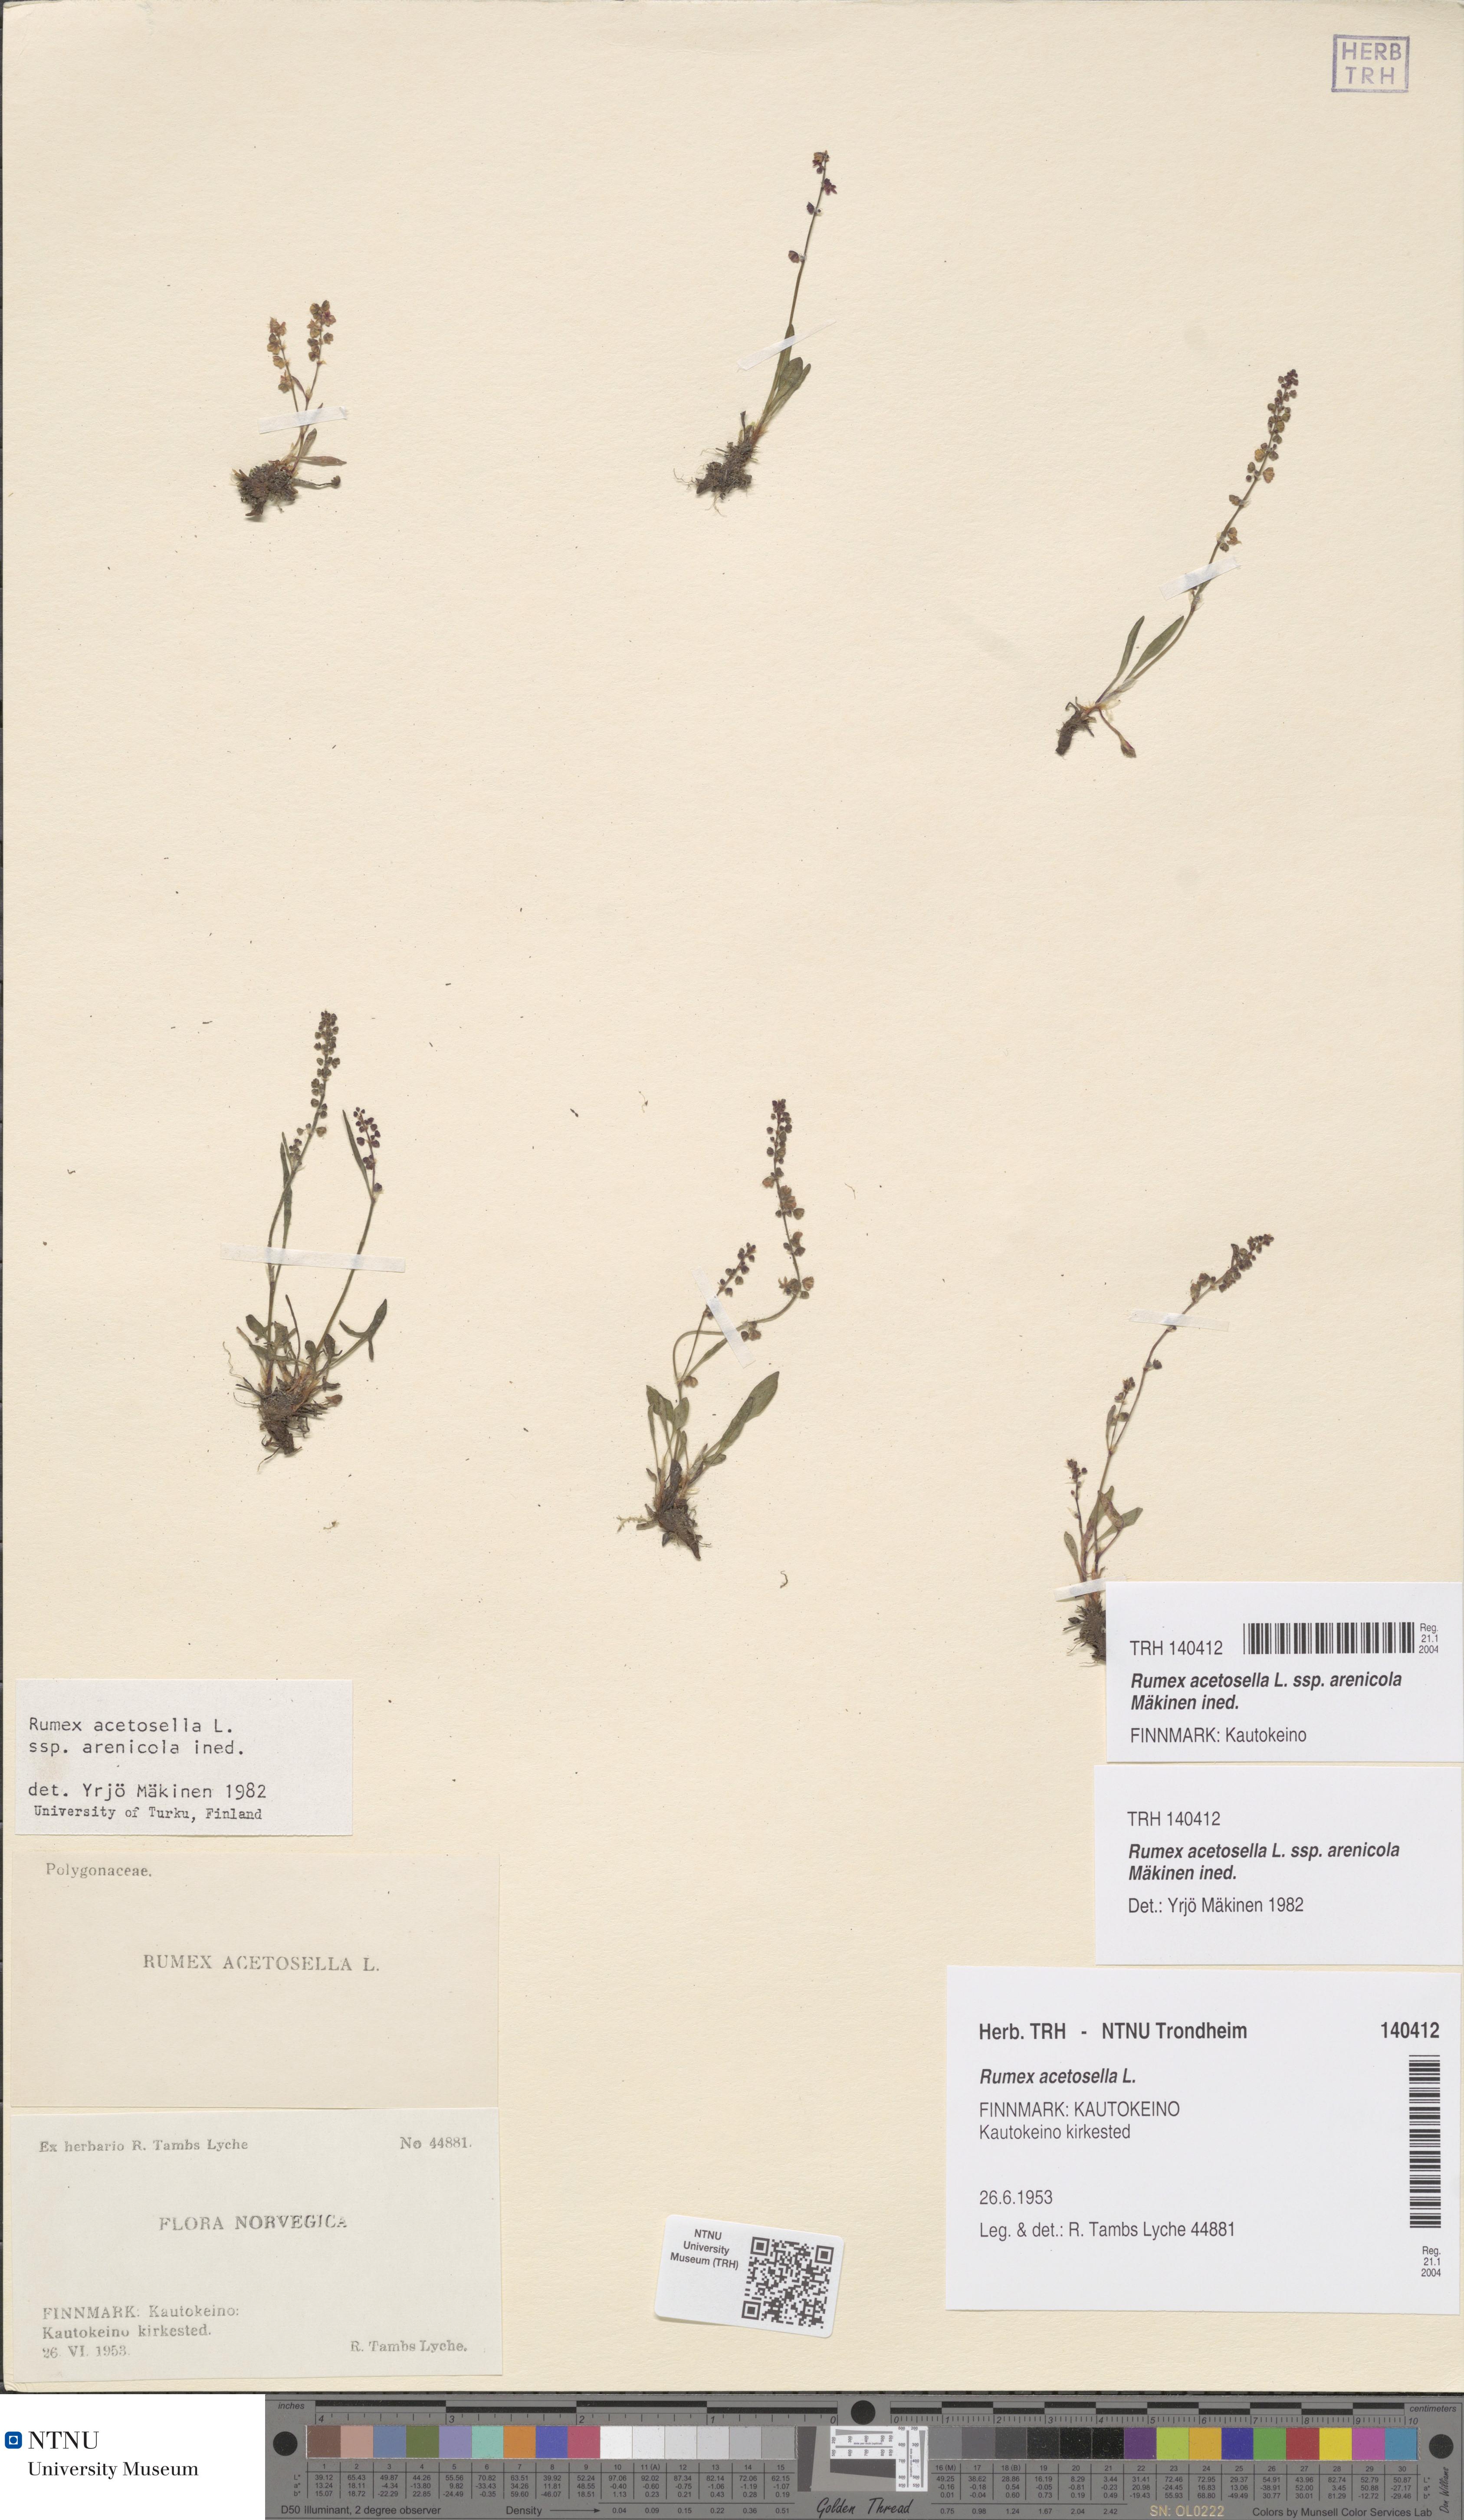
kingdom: Plantae
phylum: Tracheophyta
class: Magnoliopsida
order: Caryophyllales
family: Polygonaceae
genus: Rumex
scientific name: Rumex acetosella
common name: Common sheep sorrel
